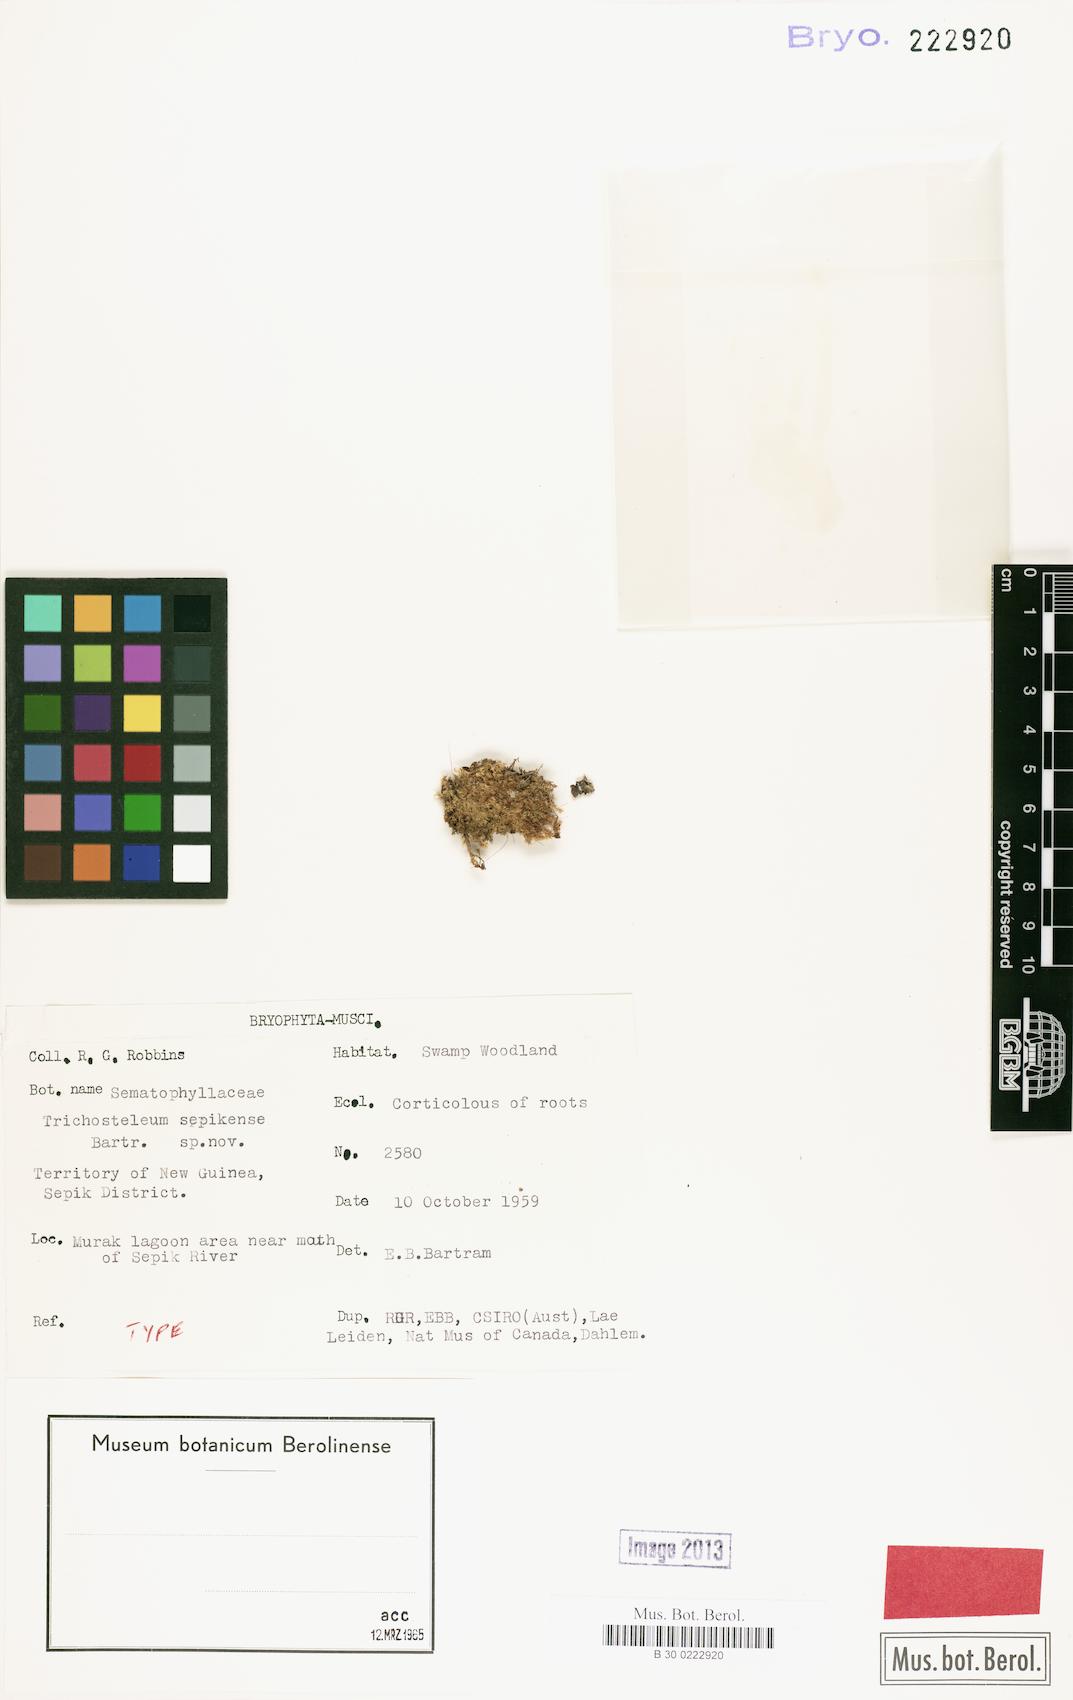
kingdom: Plantae
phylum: Bryophyta
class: Bryopsida
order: Hypnales
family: Sematophyllaceae
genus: Trichosteleum
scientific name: Trichosteleum stigmosum
